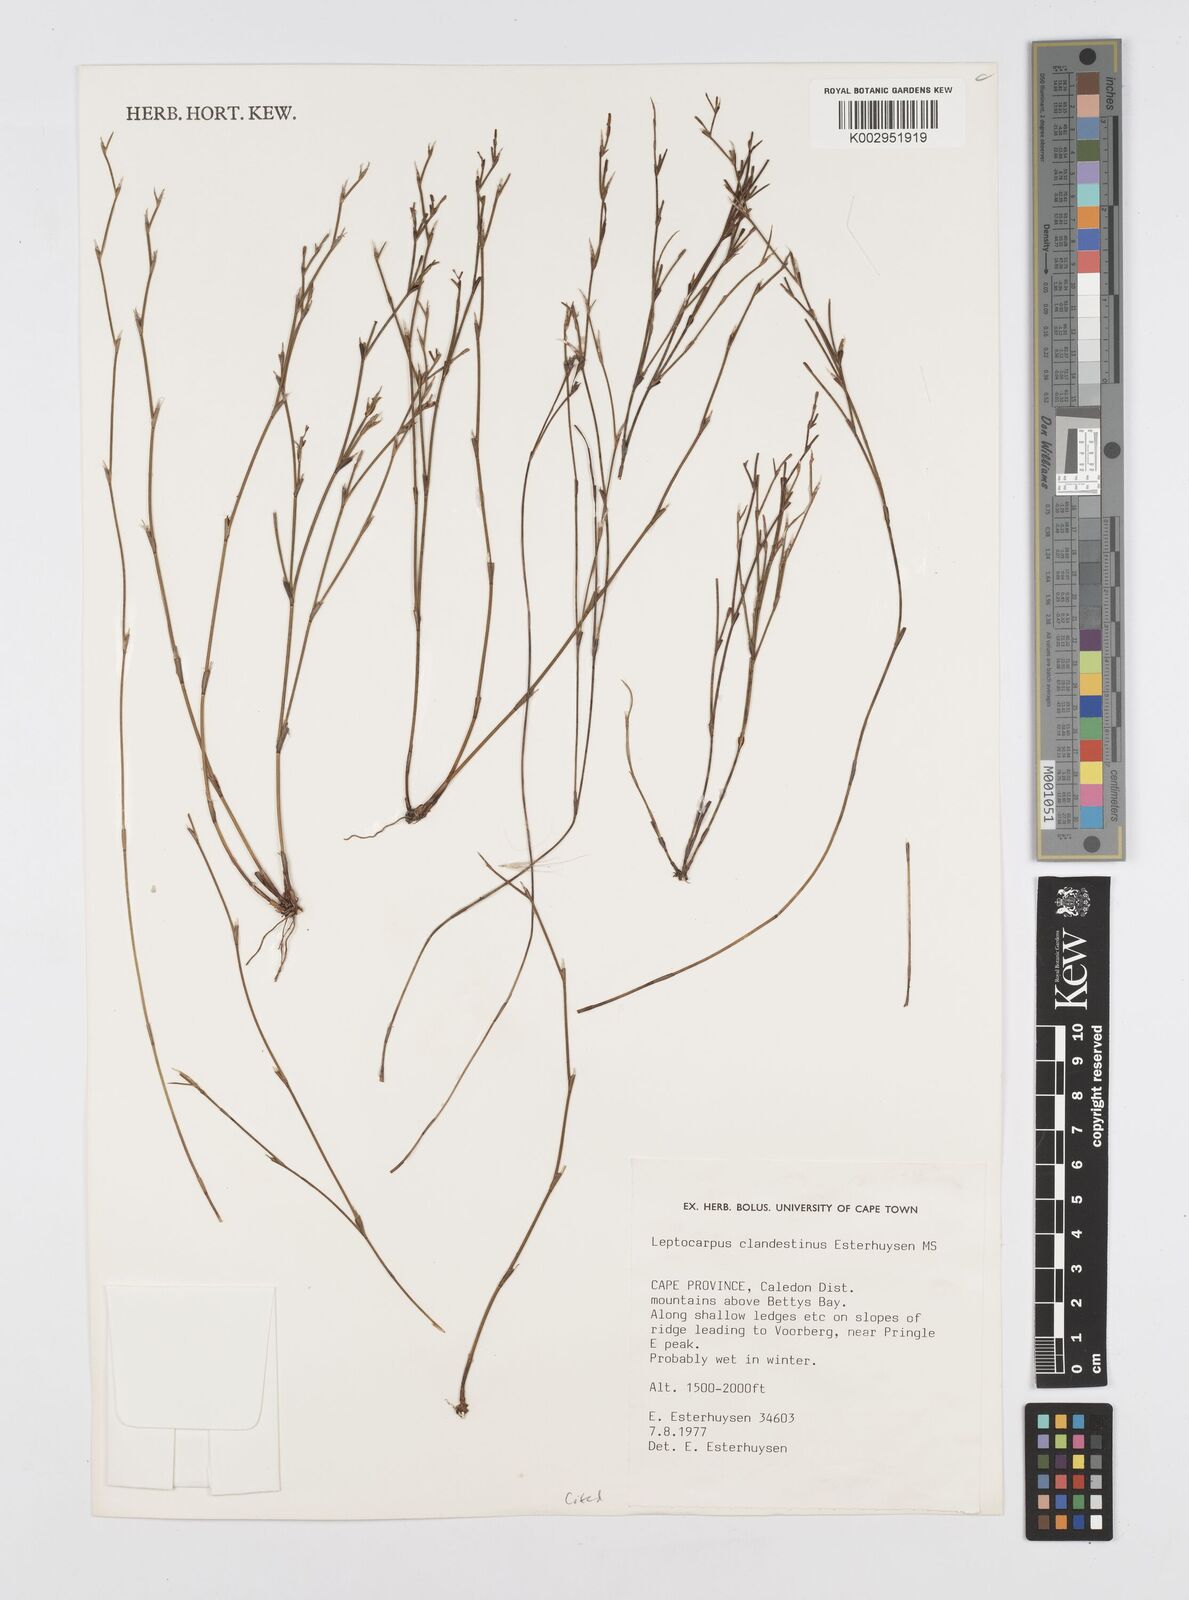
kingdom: Plantae
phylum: Tracheophyta
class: Liliopsida
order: Poales
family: Restionaceae
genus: Restio
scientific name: Restio clandestinus
